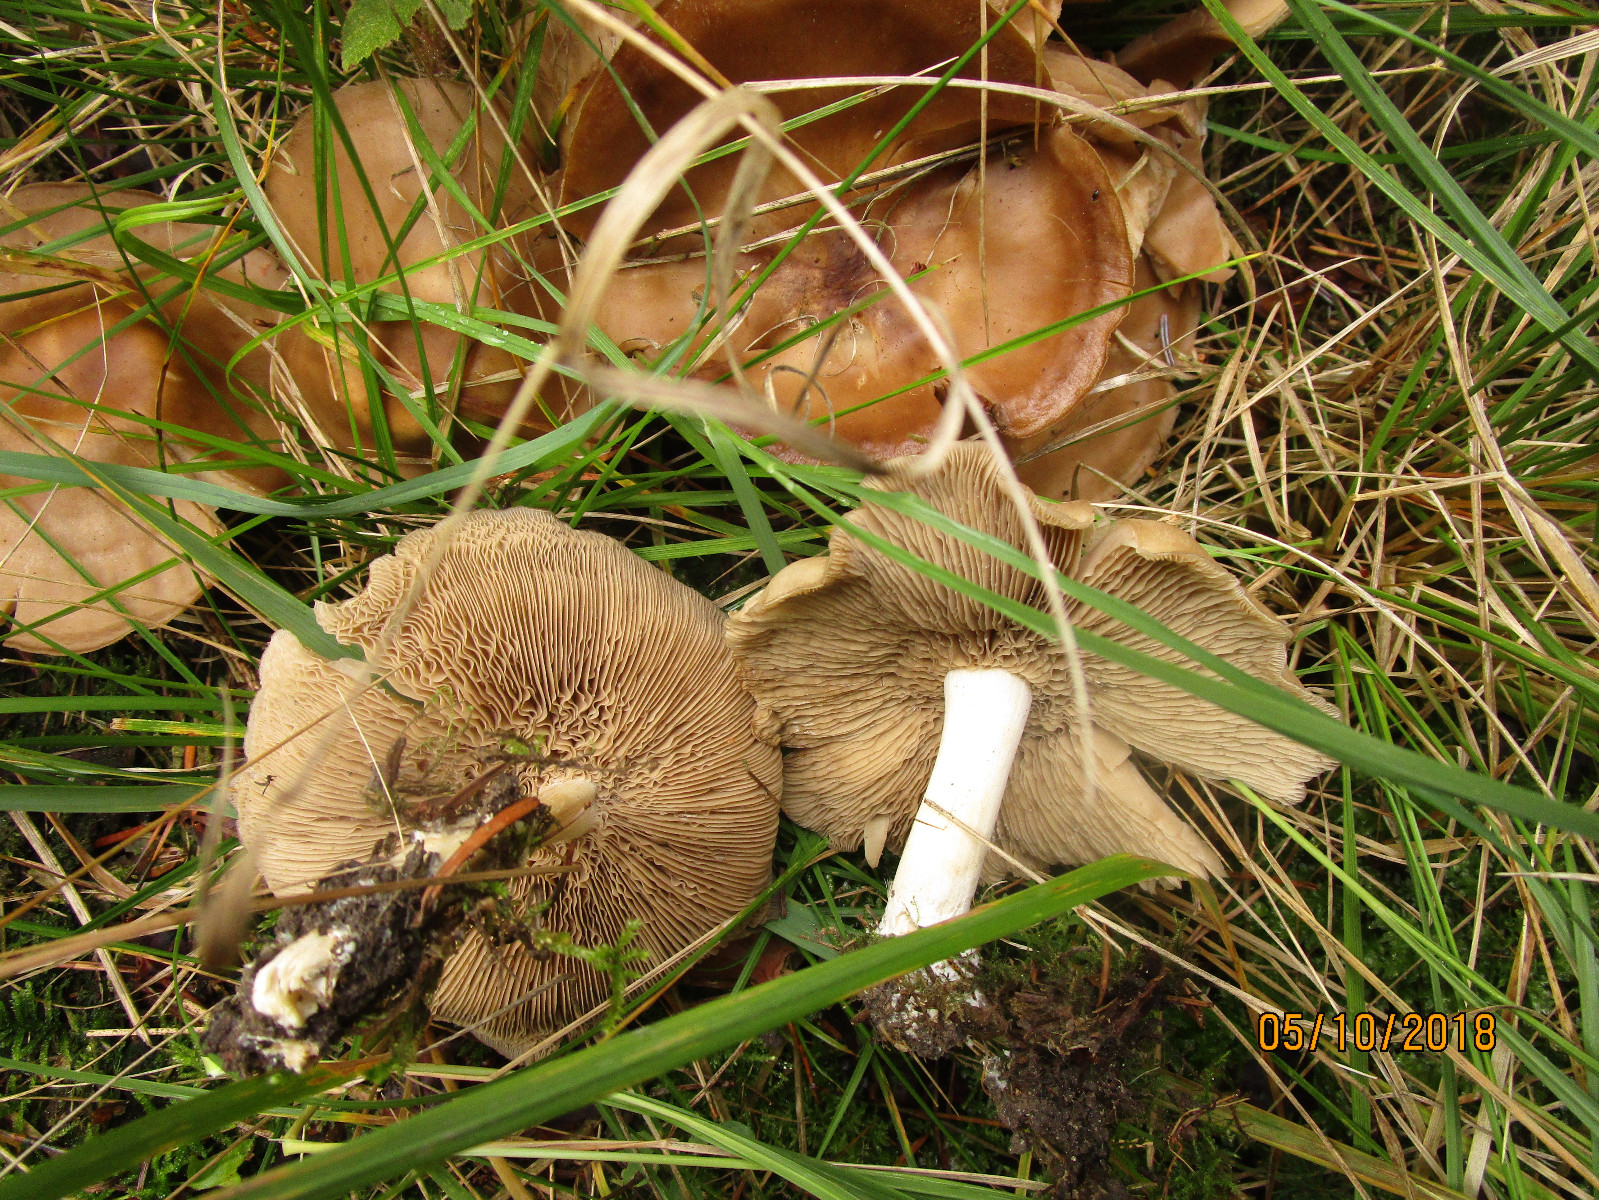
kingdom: Fungi
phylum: Basidiomycota
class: Agaricomycetes
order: Agaricales
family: Lyophyllaceae
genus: Lyophyllum
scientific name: Lyophyllum decastes
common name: røggrå gråblad
